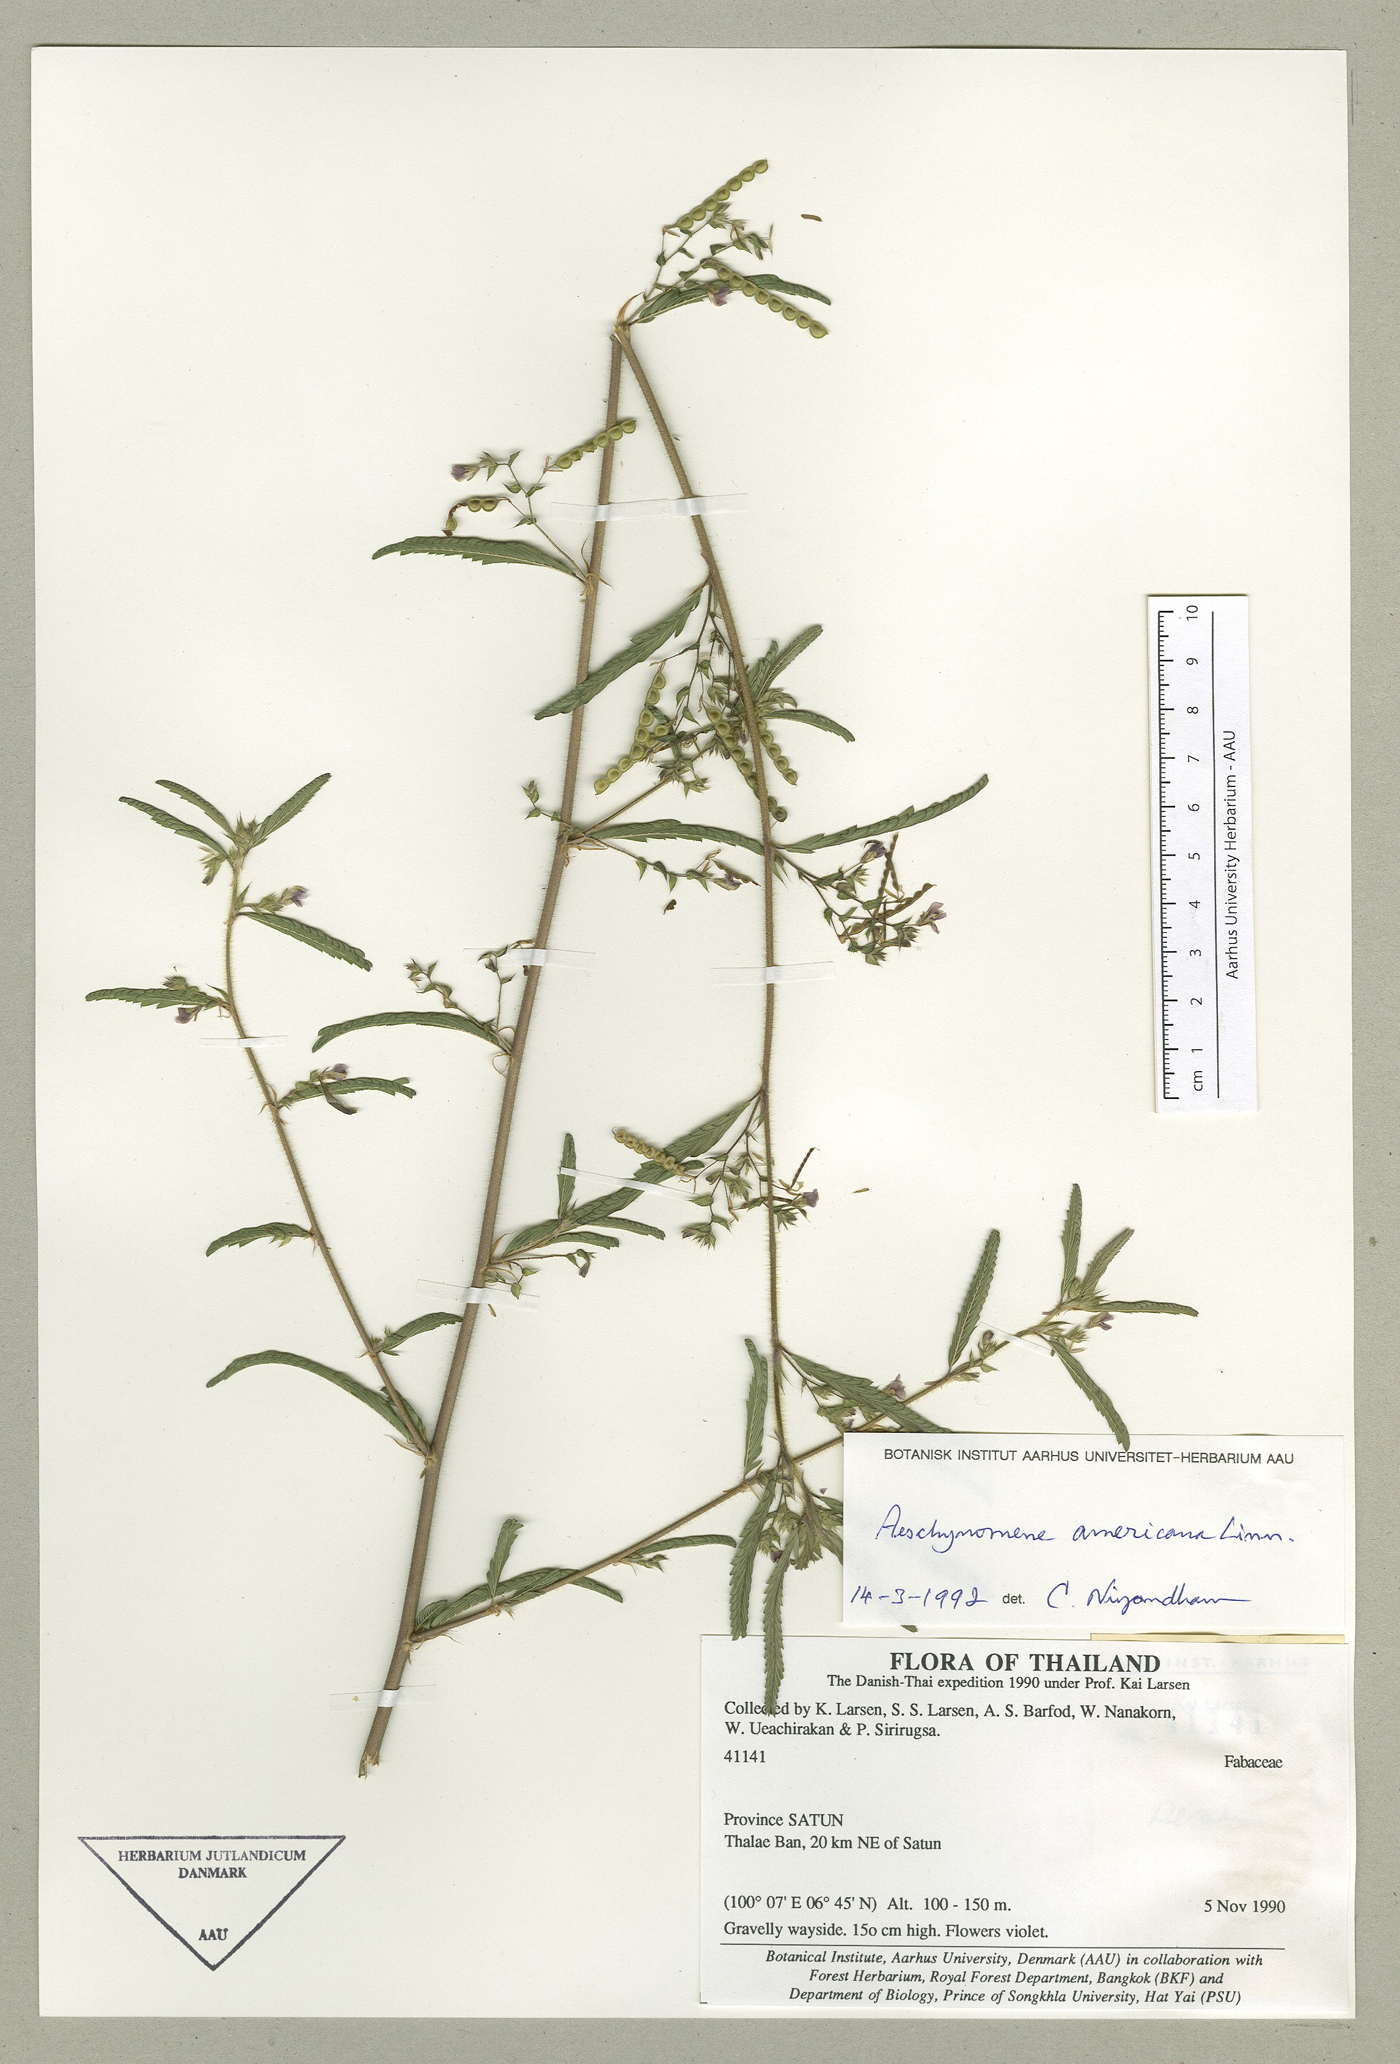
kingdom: Plantae
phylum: Tracheophyta
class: Magnoliopsida
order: Fabales
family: Fabaceae
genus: Aeschynomene
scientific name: Aeschynomene americana
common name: Joint-vetch
